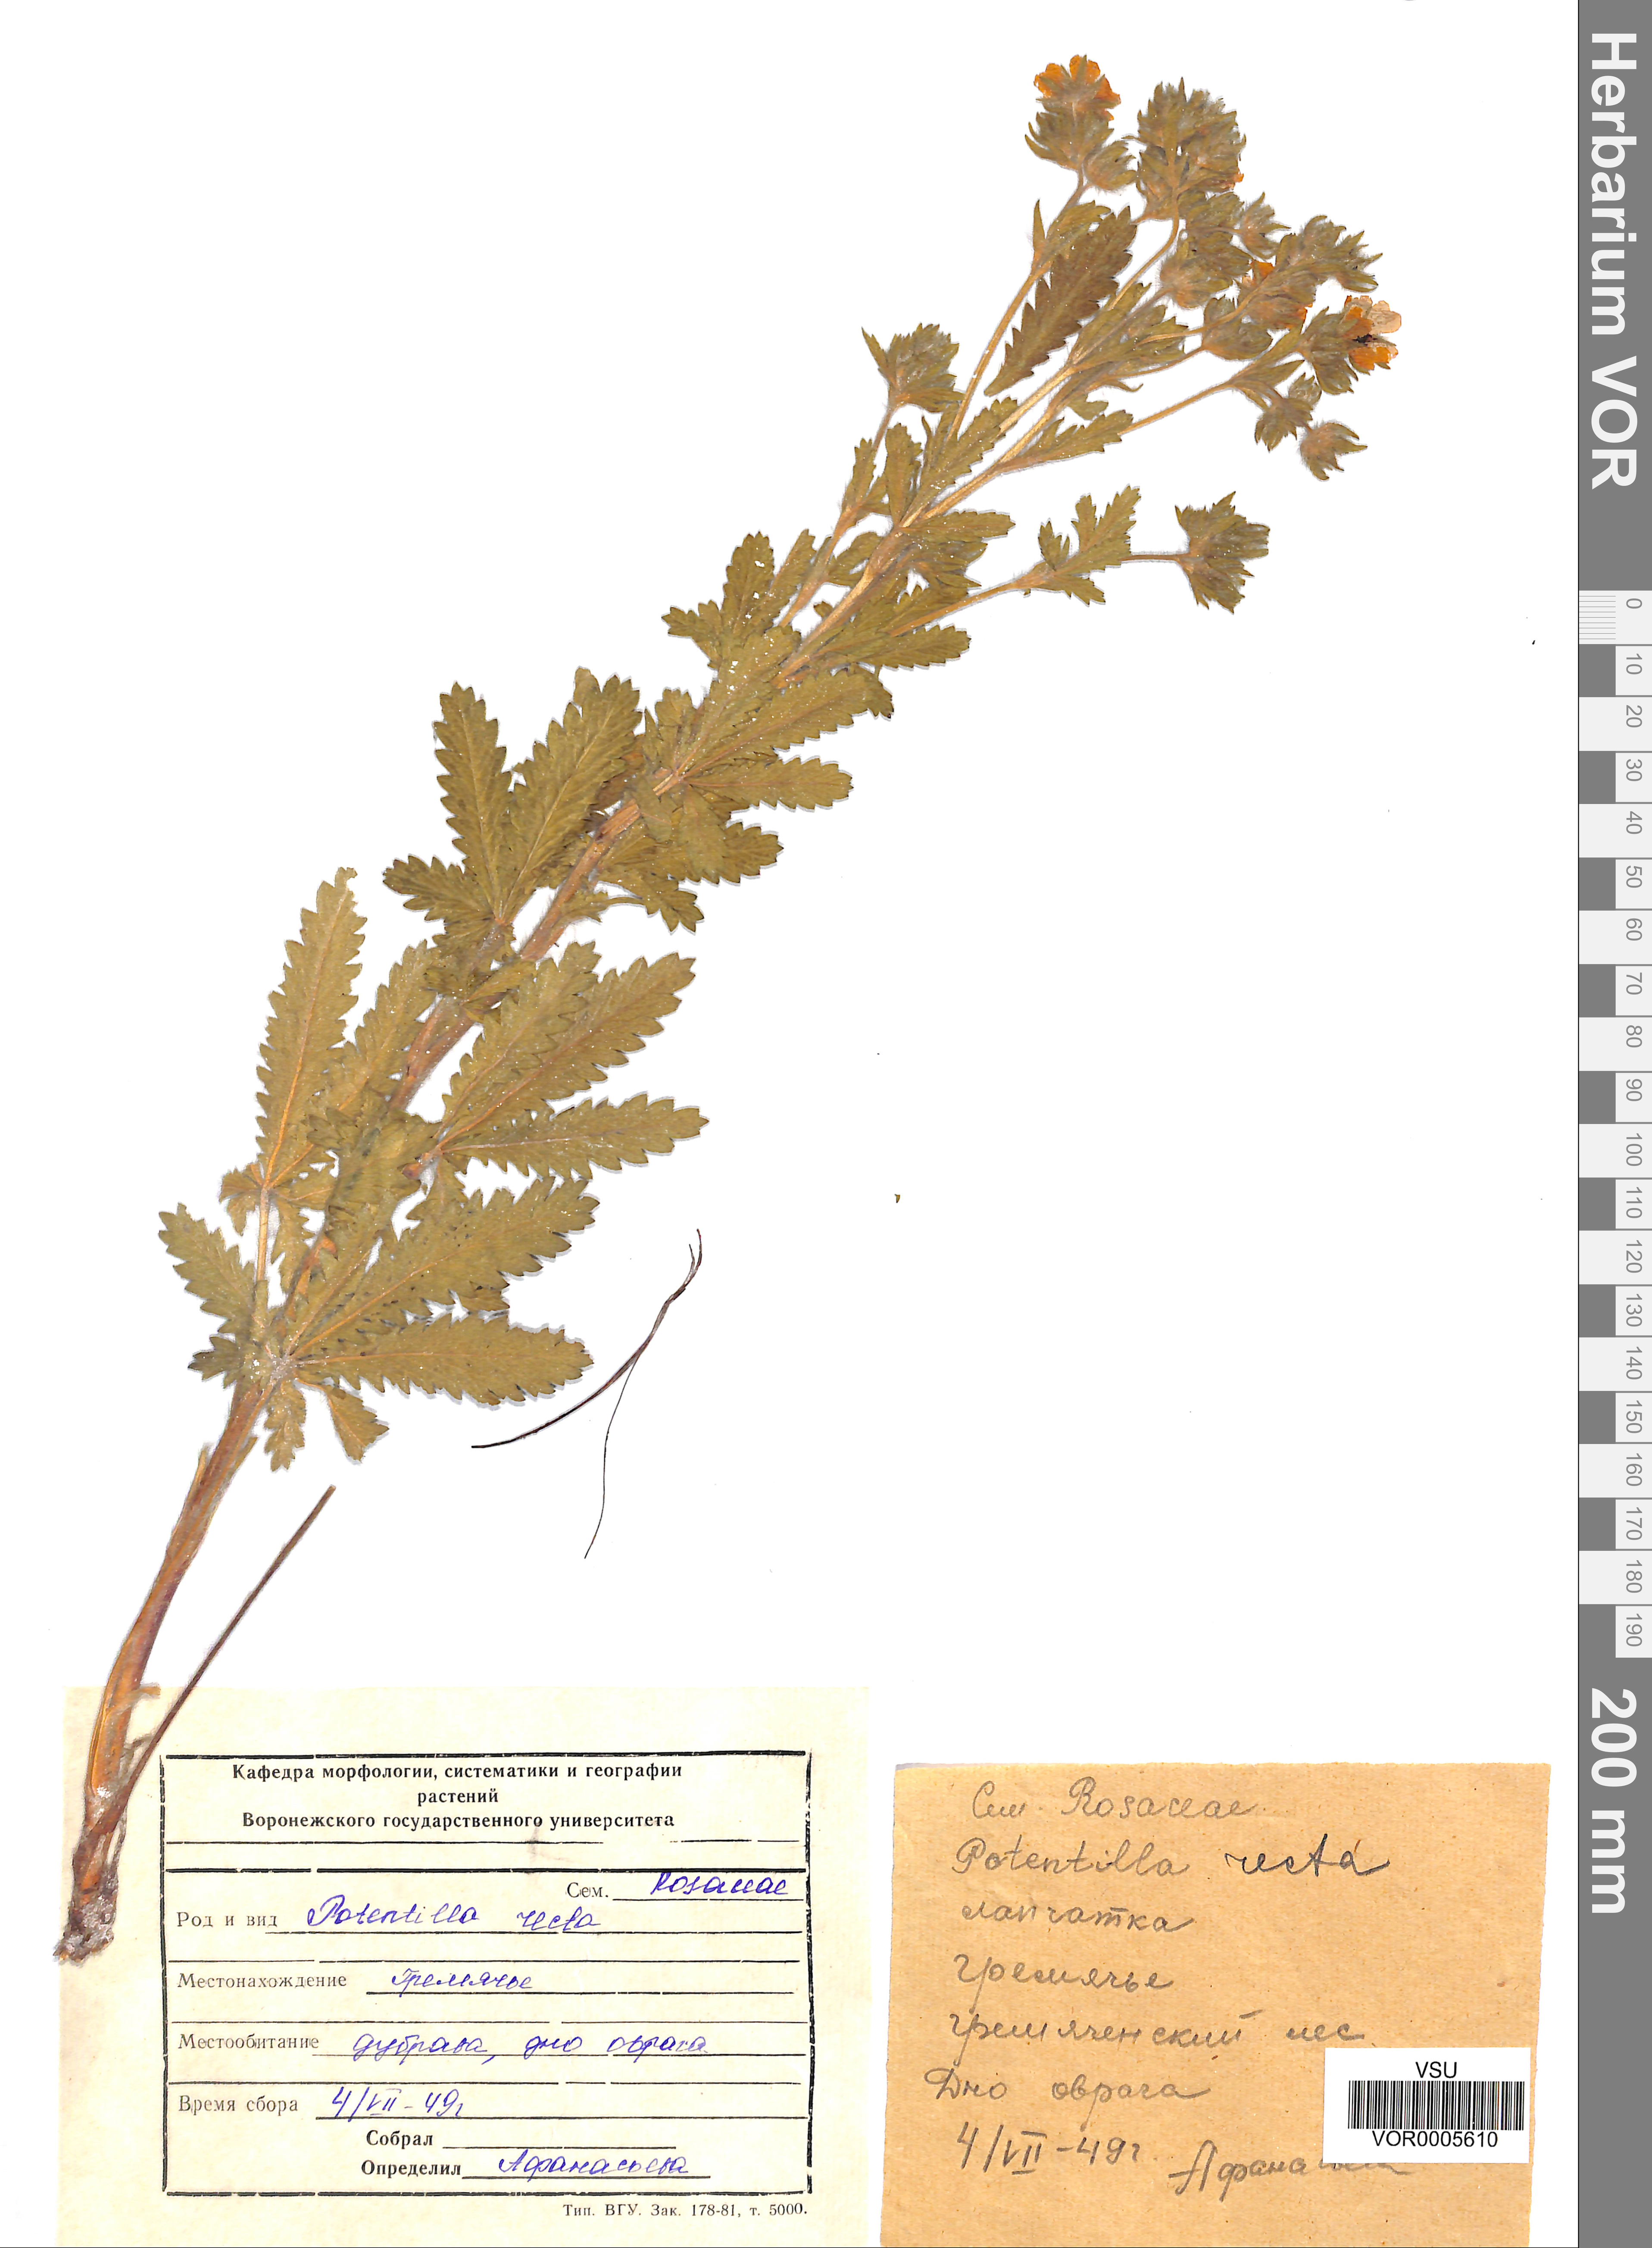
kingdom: Plantae
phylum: Tracheophyta
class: Magnoliopsida
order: Rosales
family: Rosaceae
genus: Potentilla
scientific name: Potentilla recta
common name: Sulphur cinquefoil
